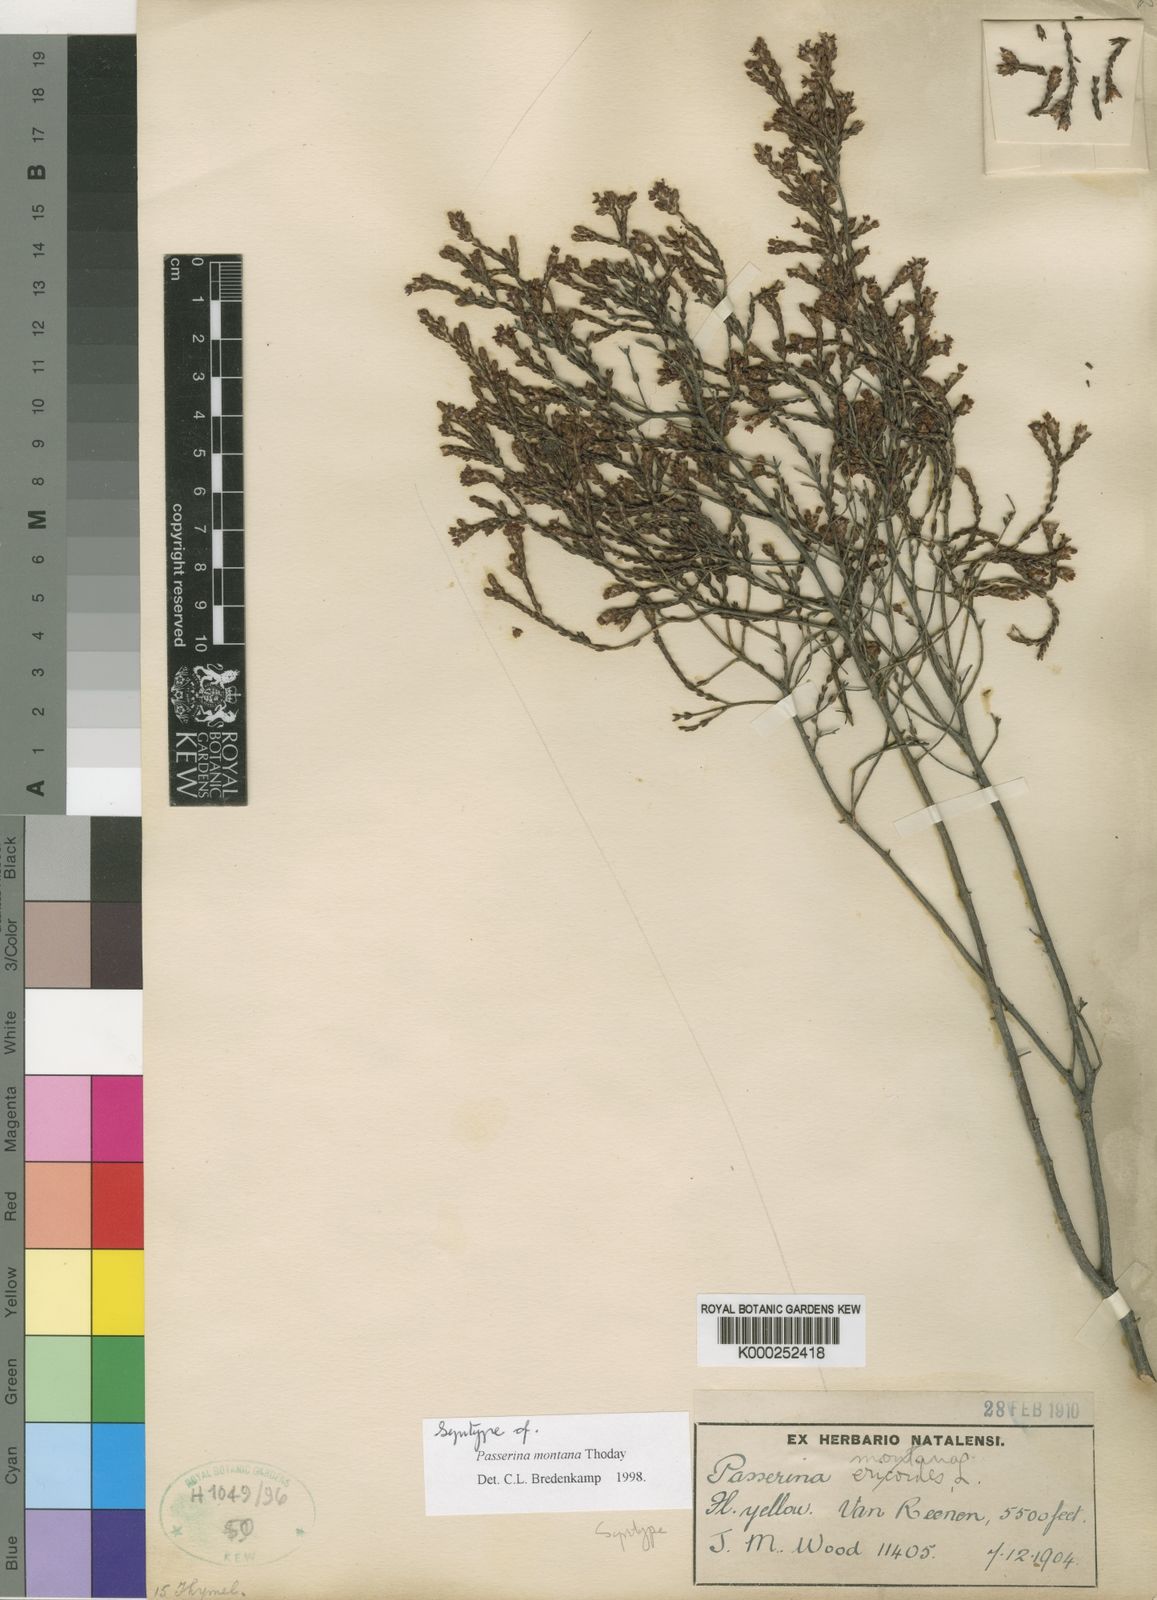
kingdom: Plantae
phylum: Tracheophyta
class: Magnoliopsida
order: Malvales
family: Thymelaeaceae
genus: Passerina
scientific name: Passerina montana
